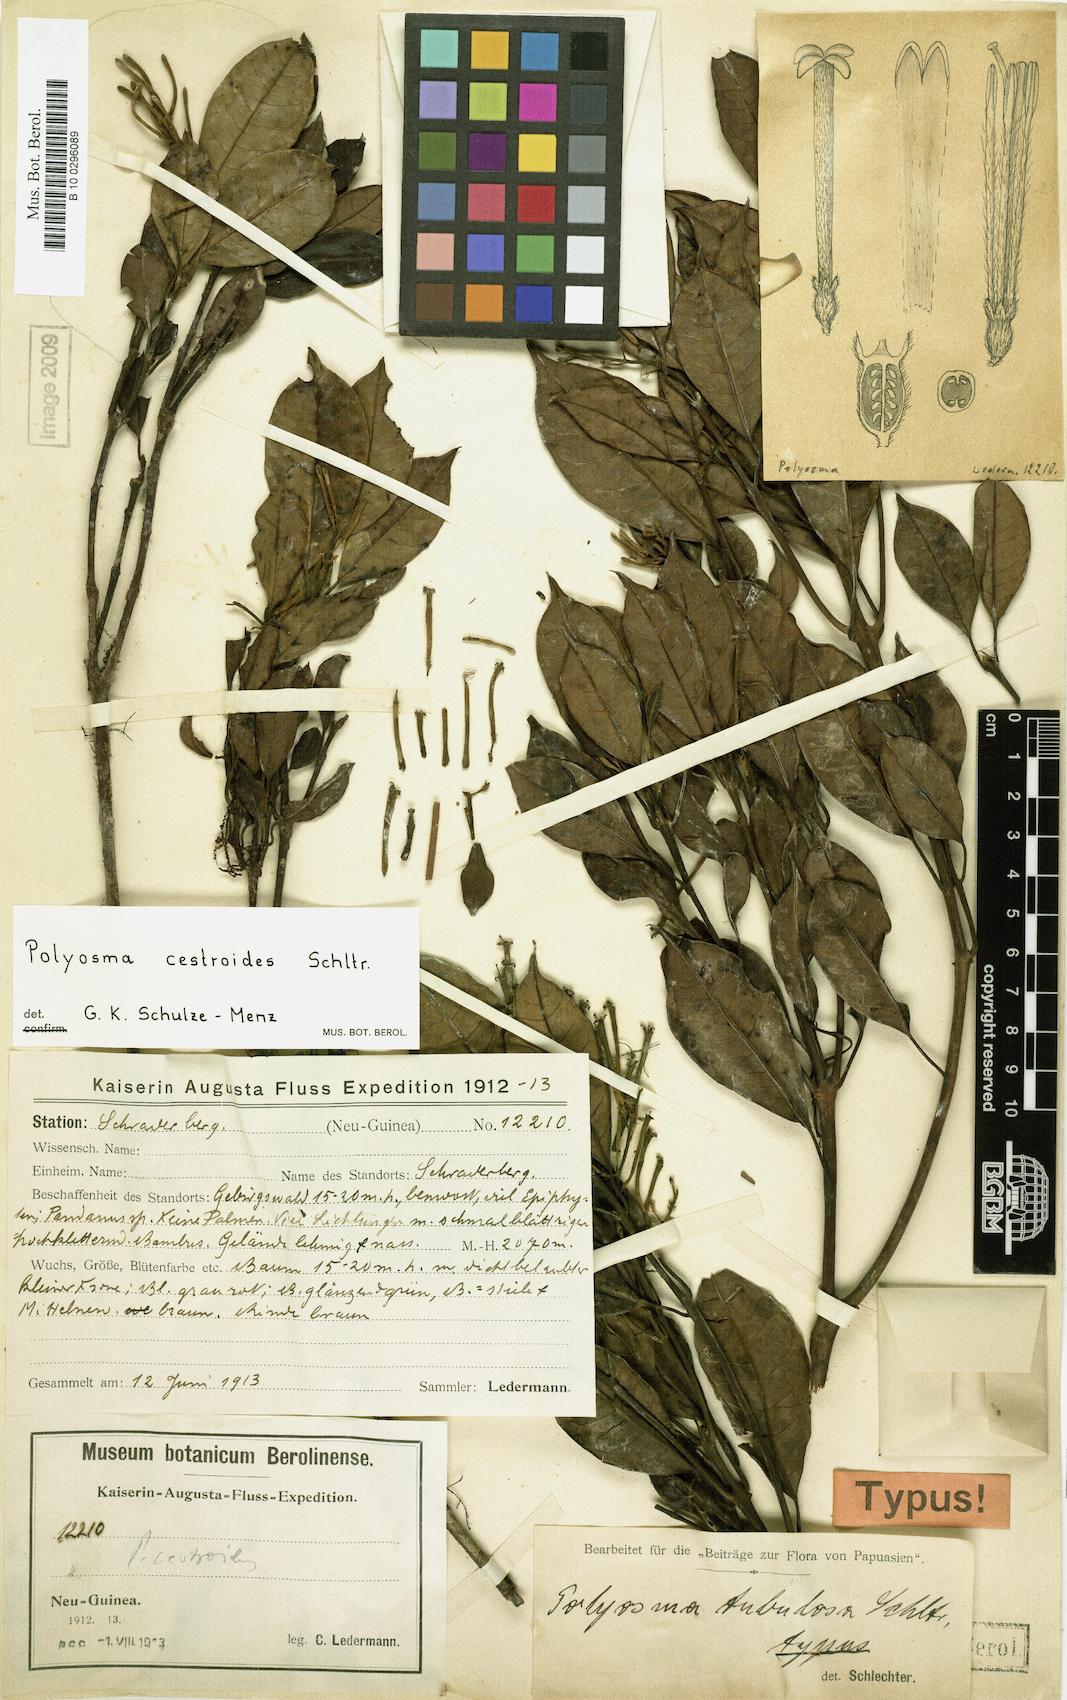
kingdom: Plantae
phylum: Tracheophyta
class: Magnoliopsida
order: Escalloniales
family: Escalloniaceae
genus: Polyosma
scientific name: Polyosma cestroides
